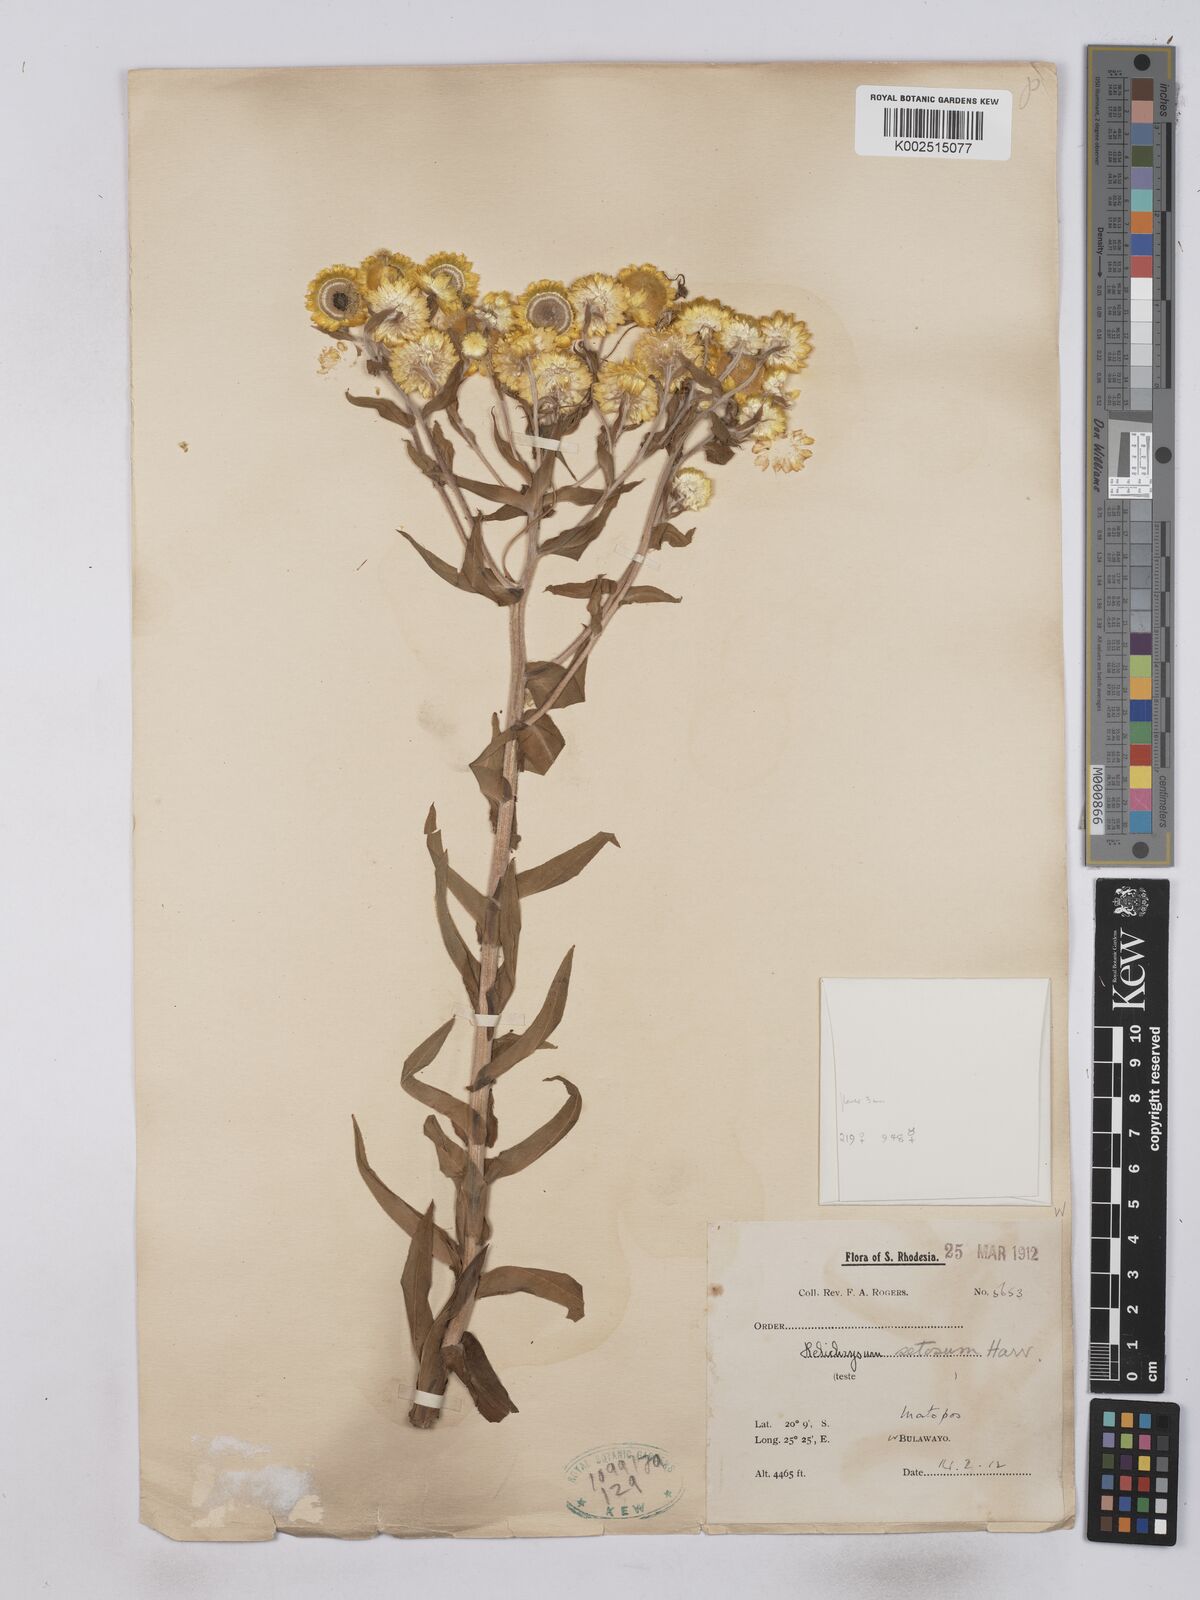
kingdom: Plantae
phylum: Tracheophyta
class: Magnoliopsida
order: Asterales
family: Asteraceae
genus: Helichrysum
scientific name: Helichrysum setosum
